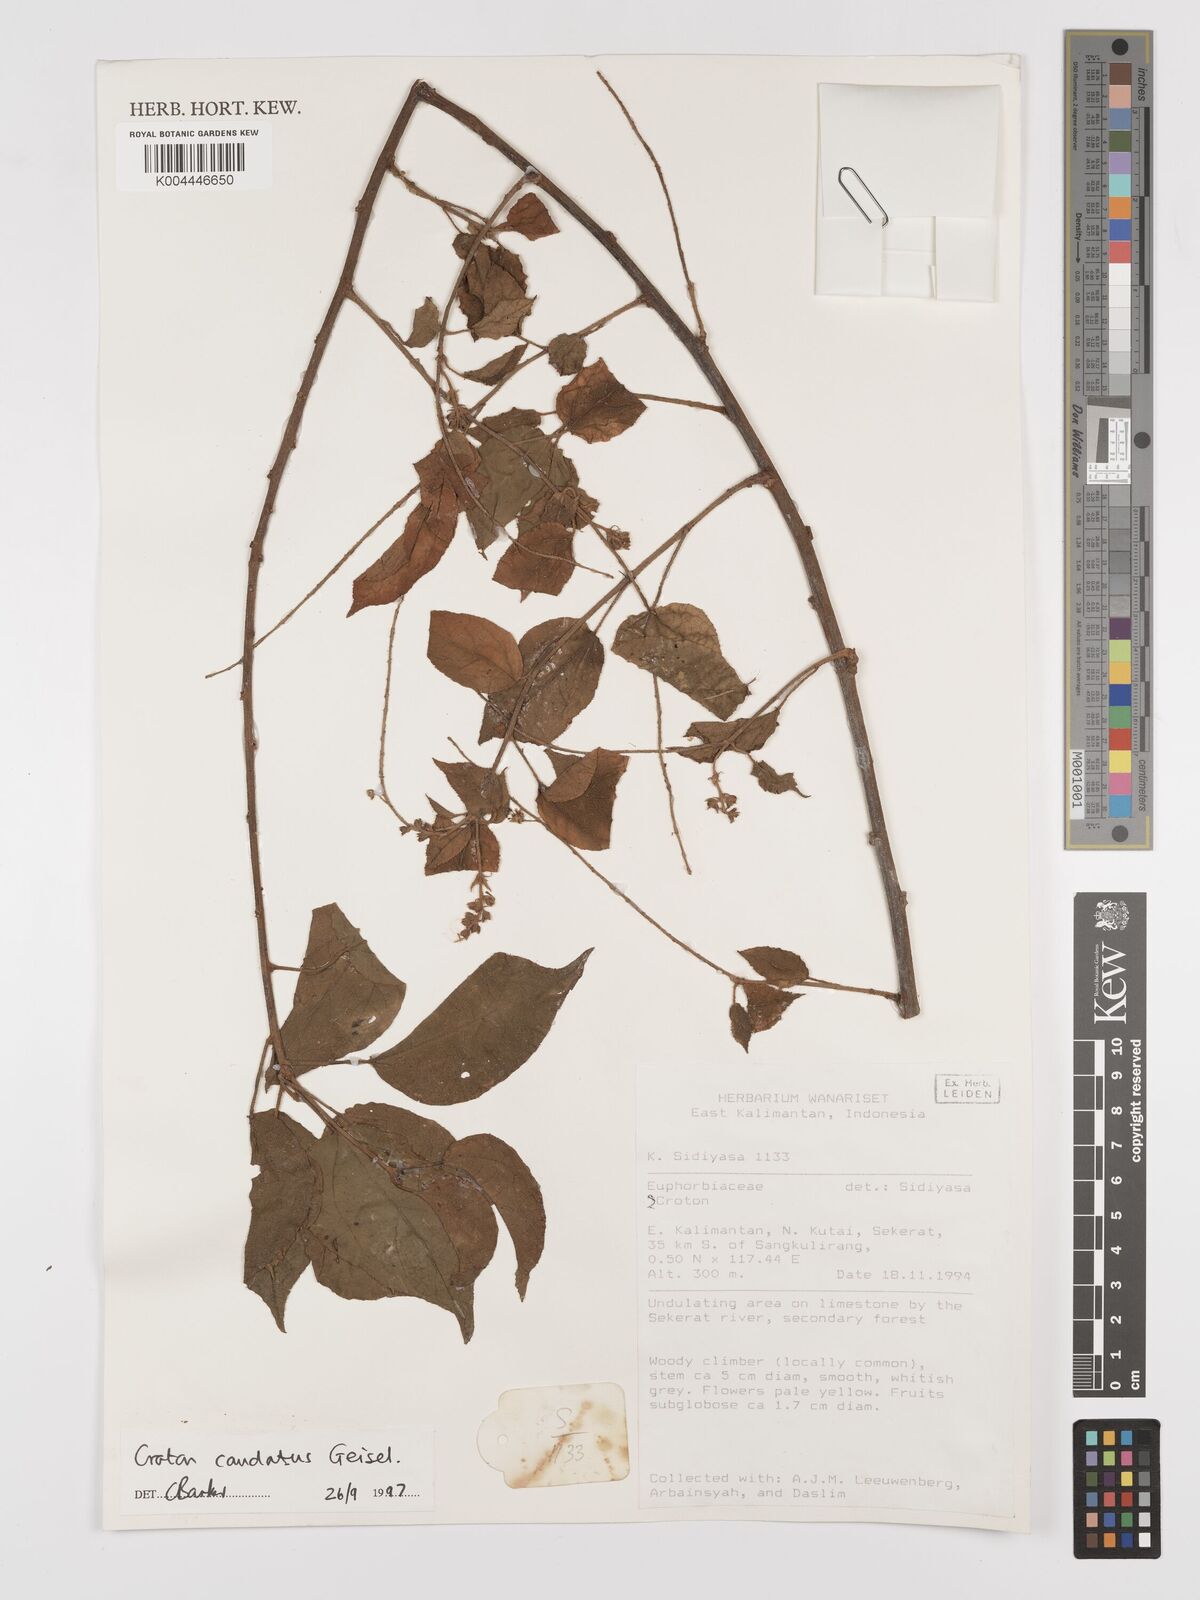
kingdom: Plantae
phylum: Tracheophyta
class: Magnoliopsida
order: Malpighiales
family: Euphorbiaceae
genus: Croton
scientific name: Croton caudatus
